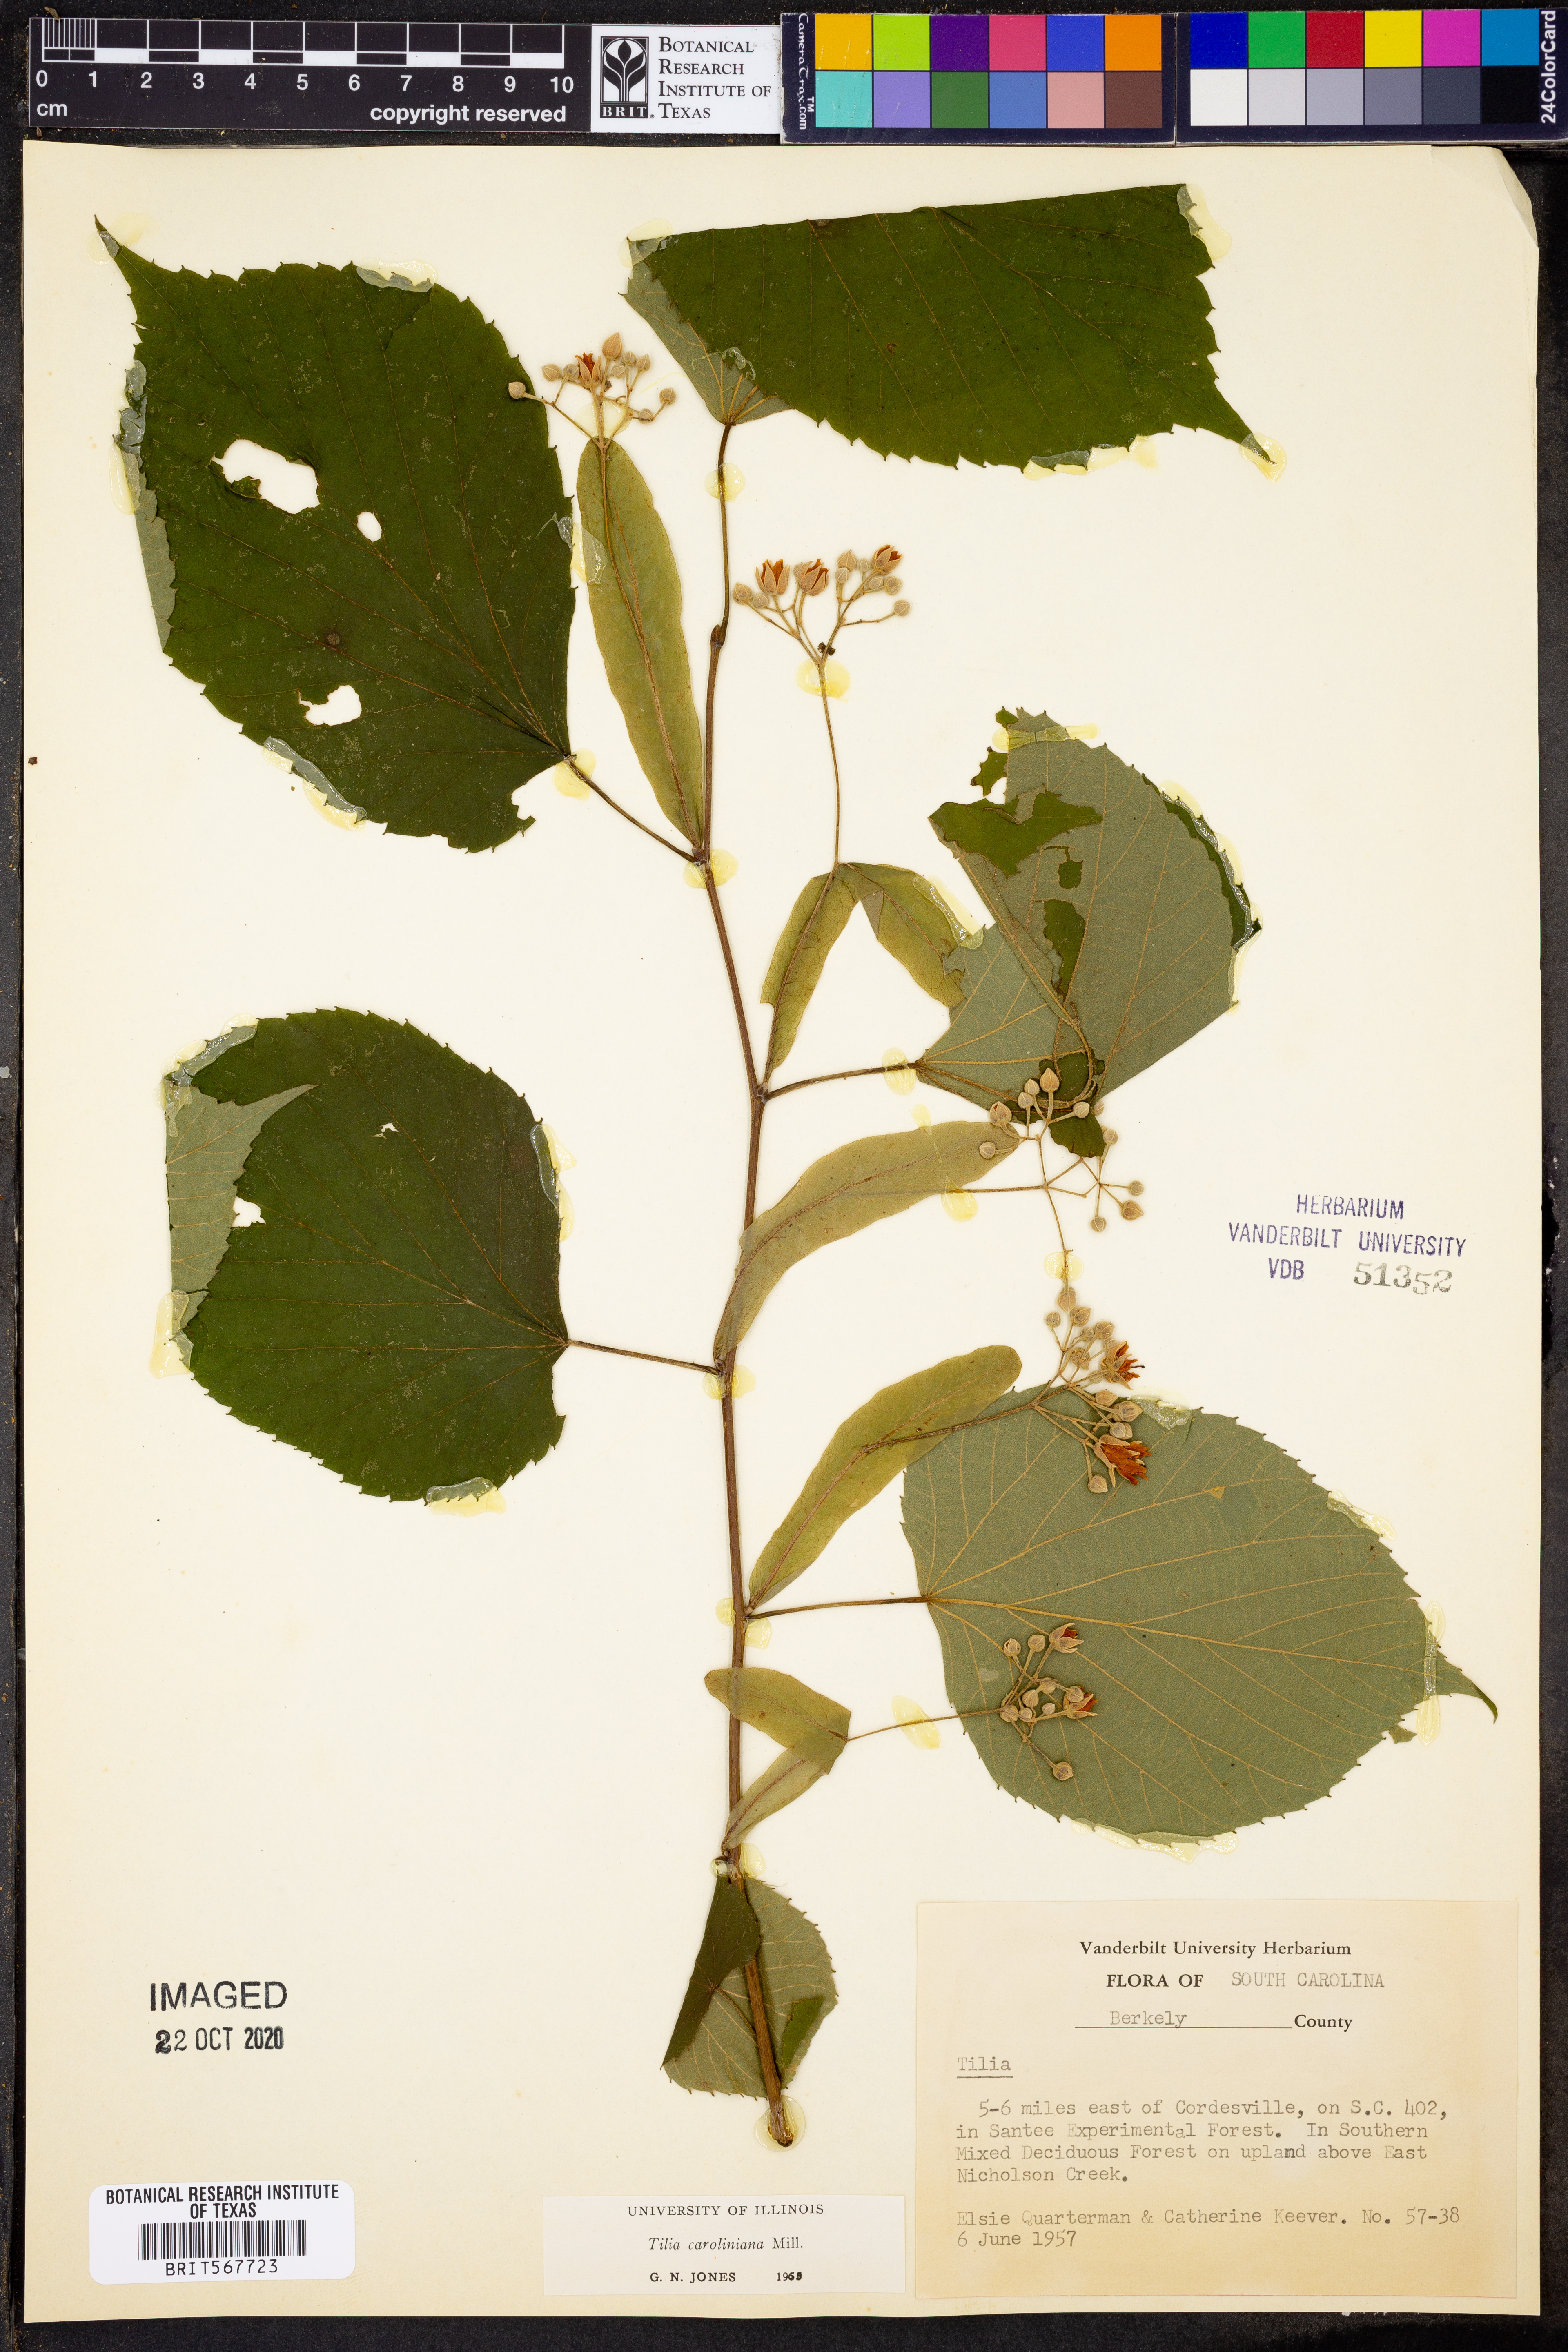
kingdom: Plantae
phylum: Tracheophyta
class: Magnoliopsida
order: Malvales
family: Malvaceae
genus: Tilia
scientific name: Tilia americana
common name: Basswood
